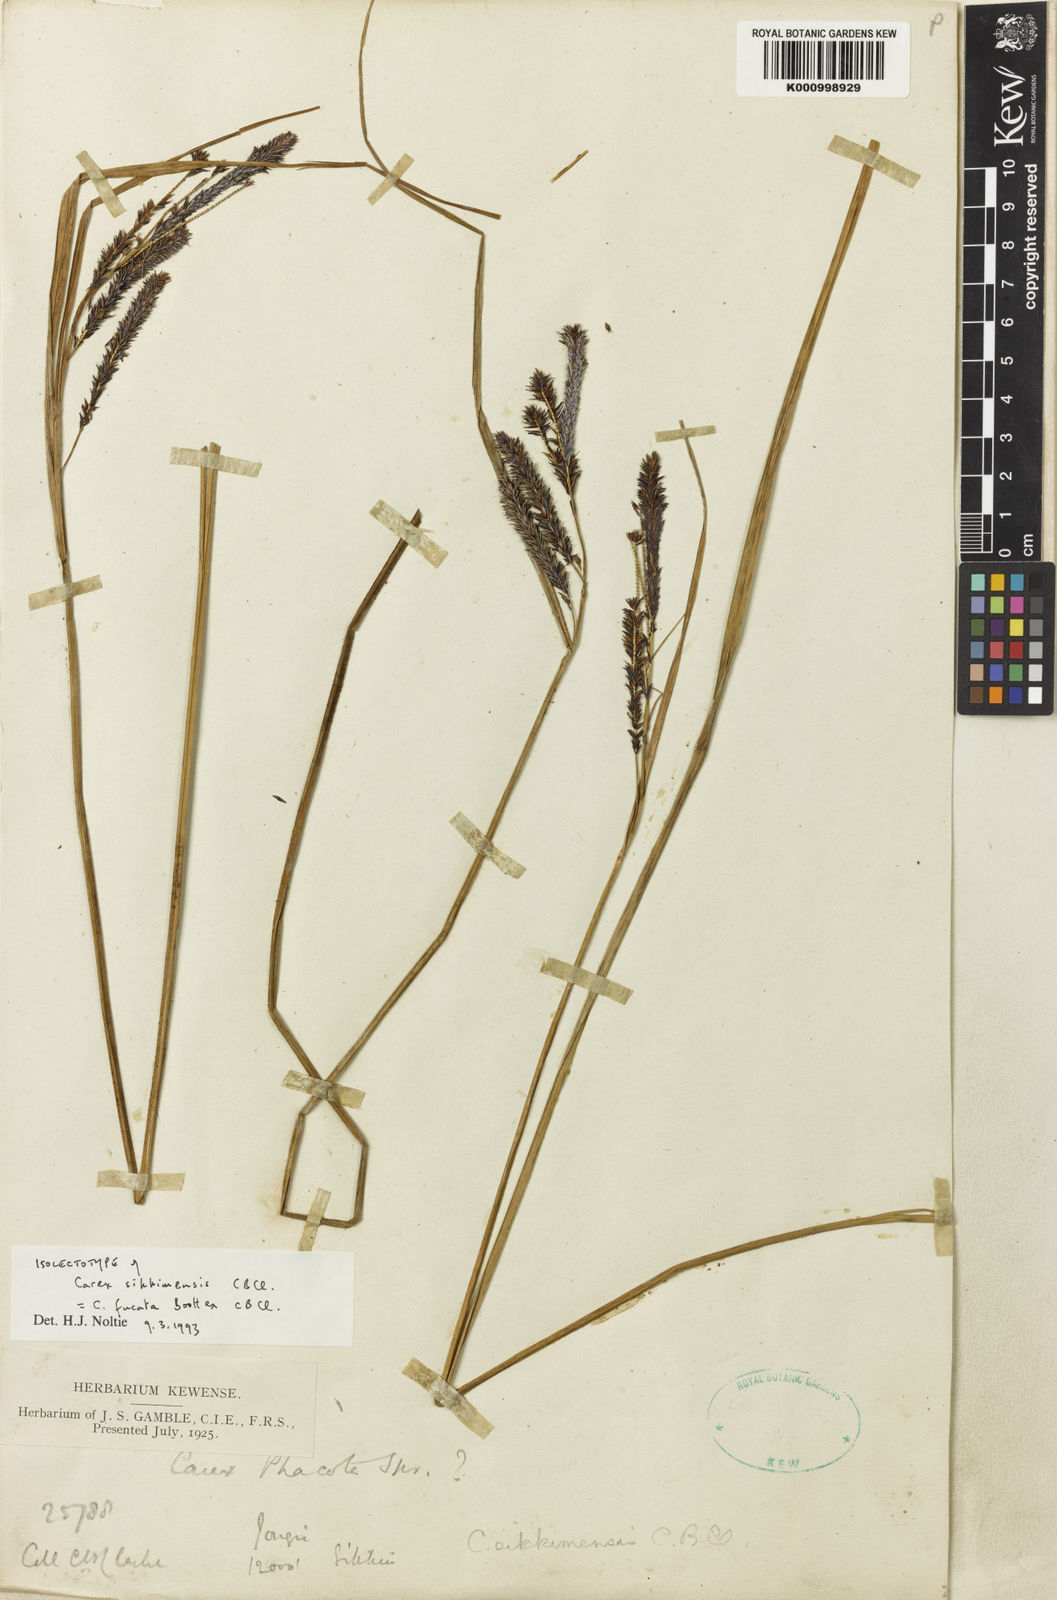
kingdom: Plantae
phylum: Tracheophyta
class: Liliopsida
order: Poales
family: Cyperaceae
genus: Carex
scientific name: Carex fucata
